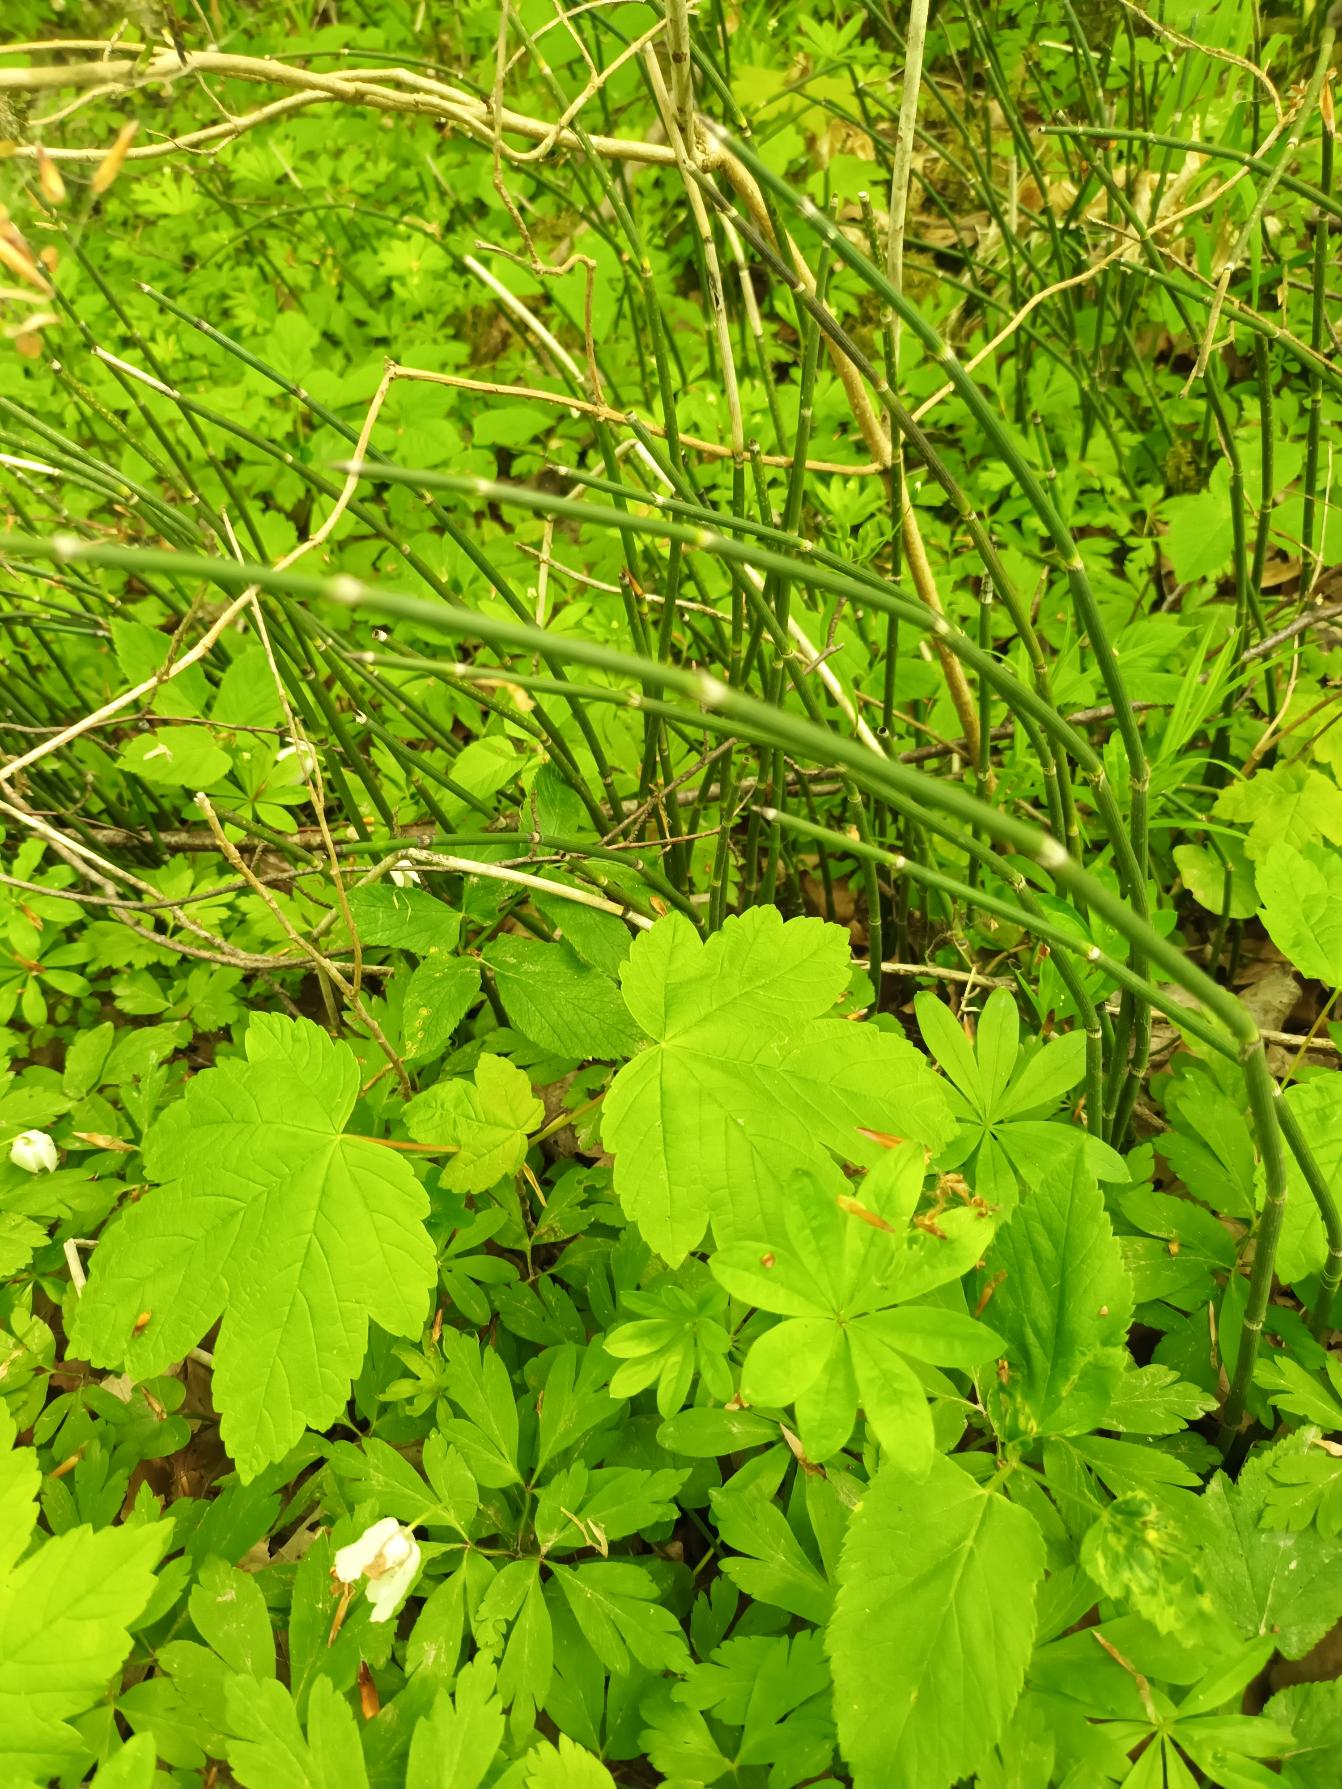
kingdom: Plantae
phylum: Tracheophyta
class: Polypodiopsida
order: Equisetales
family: Equisetaceae
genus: Equisetum
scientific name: Equisetum hyemale
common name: Skavgræs
